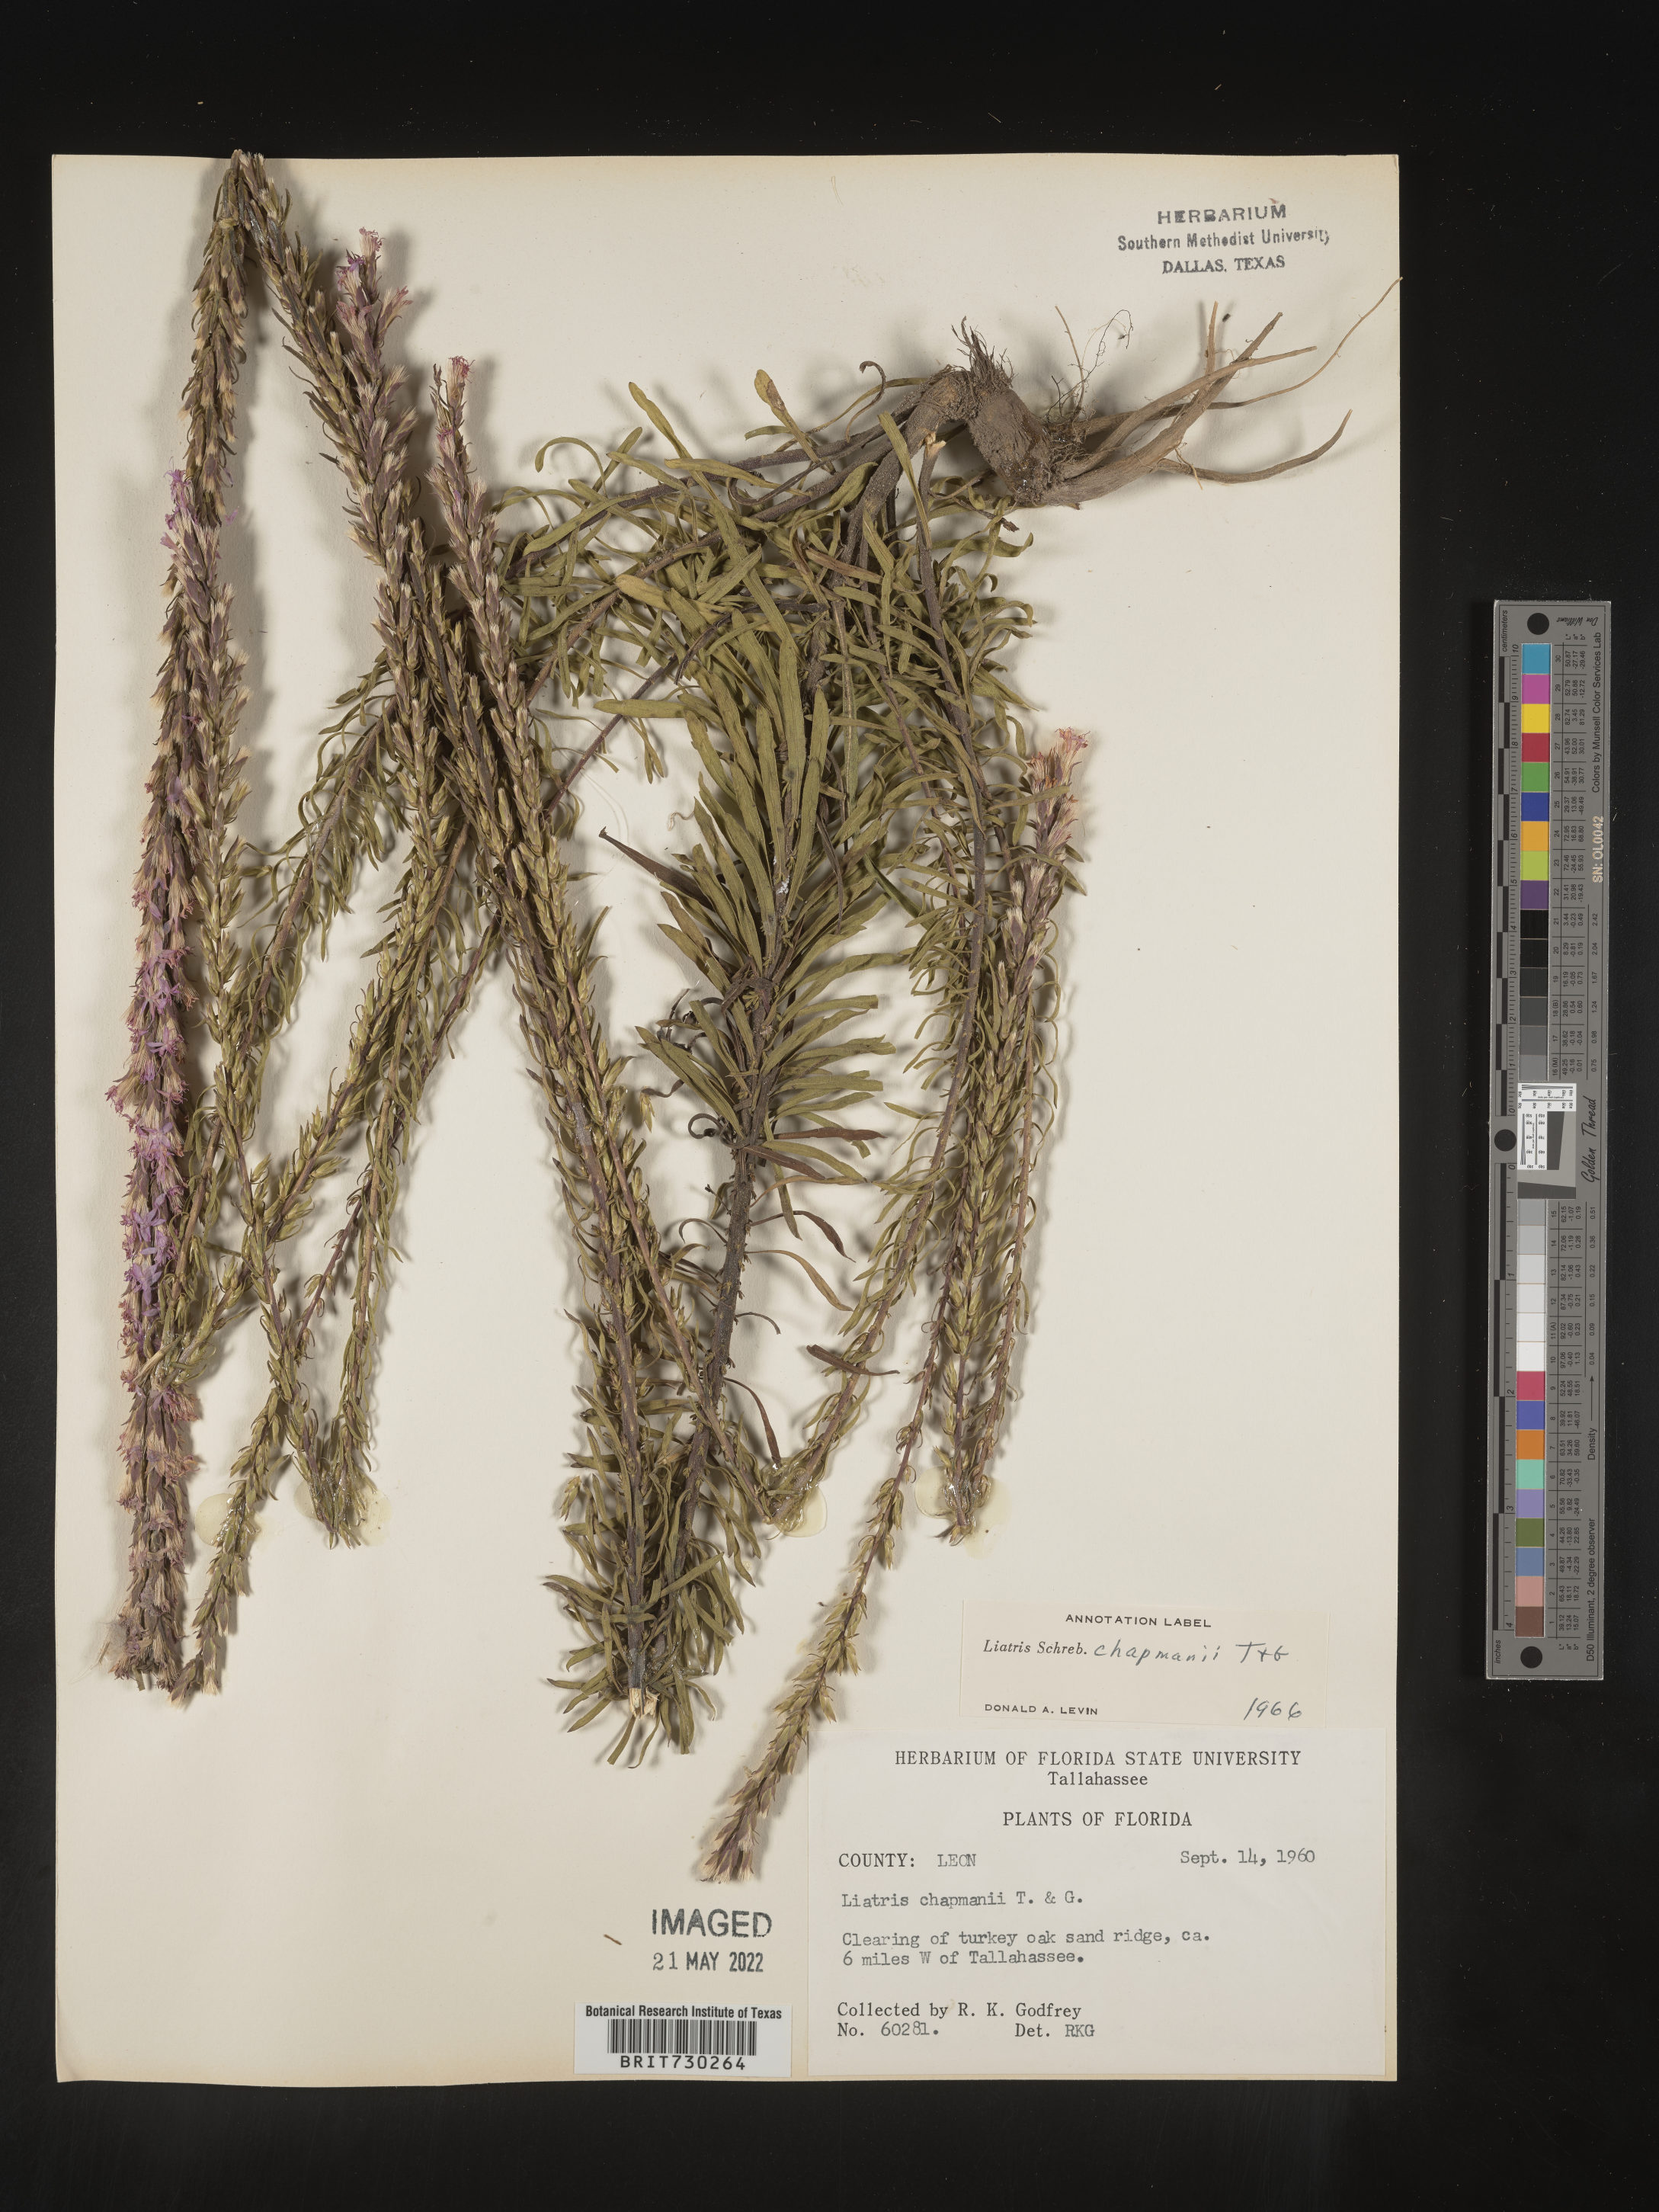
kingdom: Plantae
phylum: Tracheophyta
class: Magnoliopsida
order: Asterales
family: Asteraceae
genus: Liatris
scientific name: Liatris chapmanii
